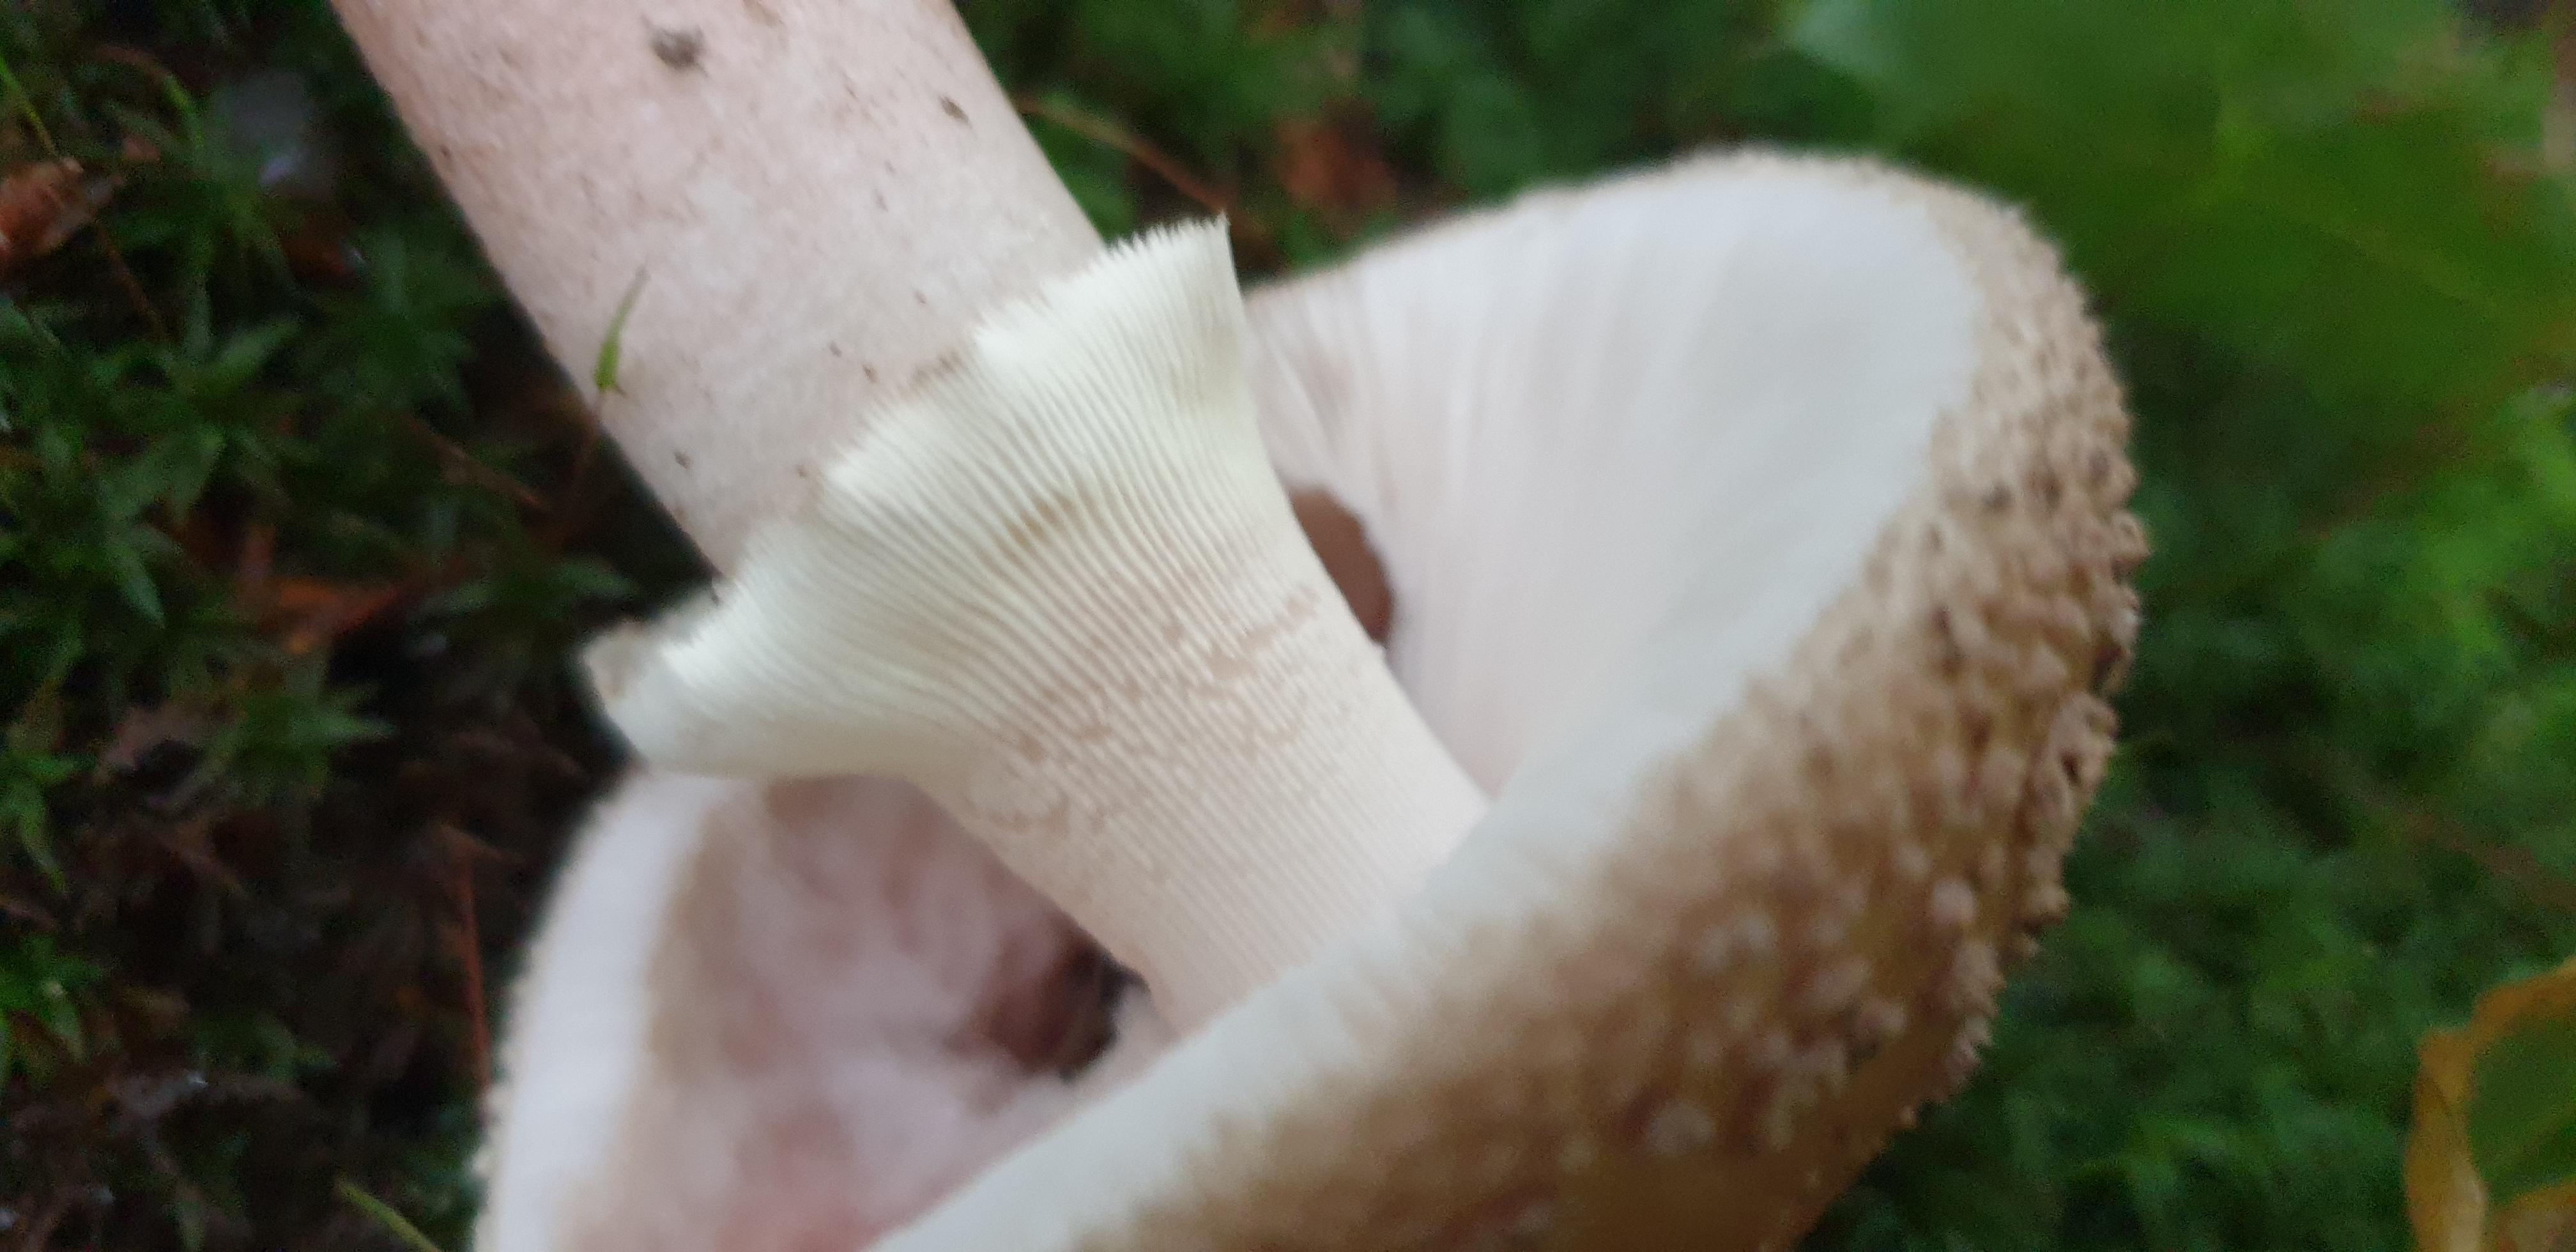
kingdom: Fungi
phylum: Basidiomycota
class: Agaricomycetes
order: Agaricales
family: Amanitaceae
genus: Amanita
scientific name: Amanita rubescens
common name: rødmende fluesvamp
